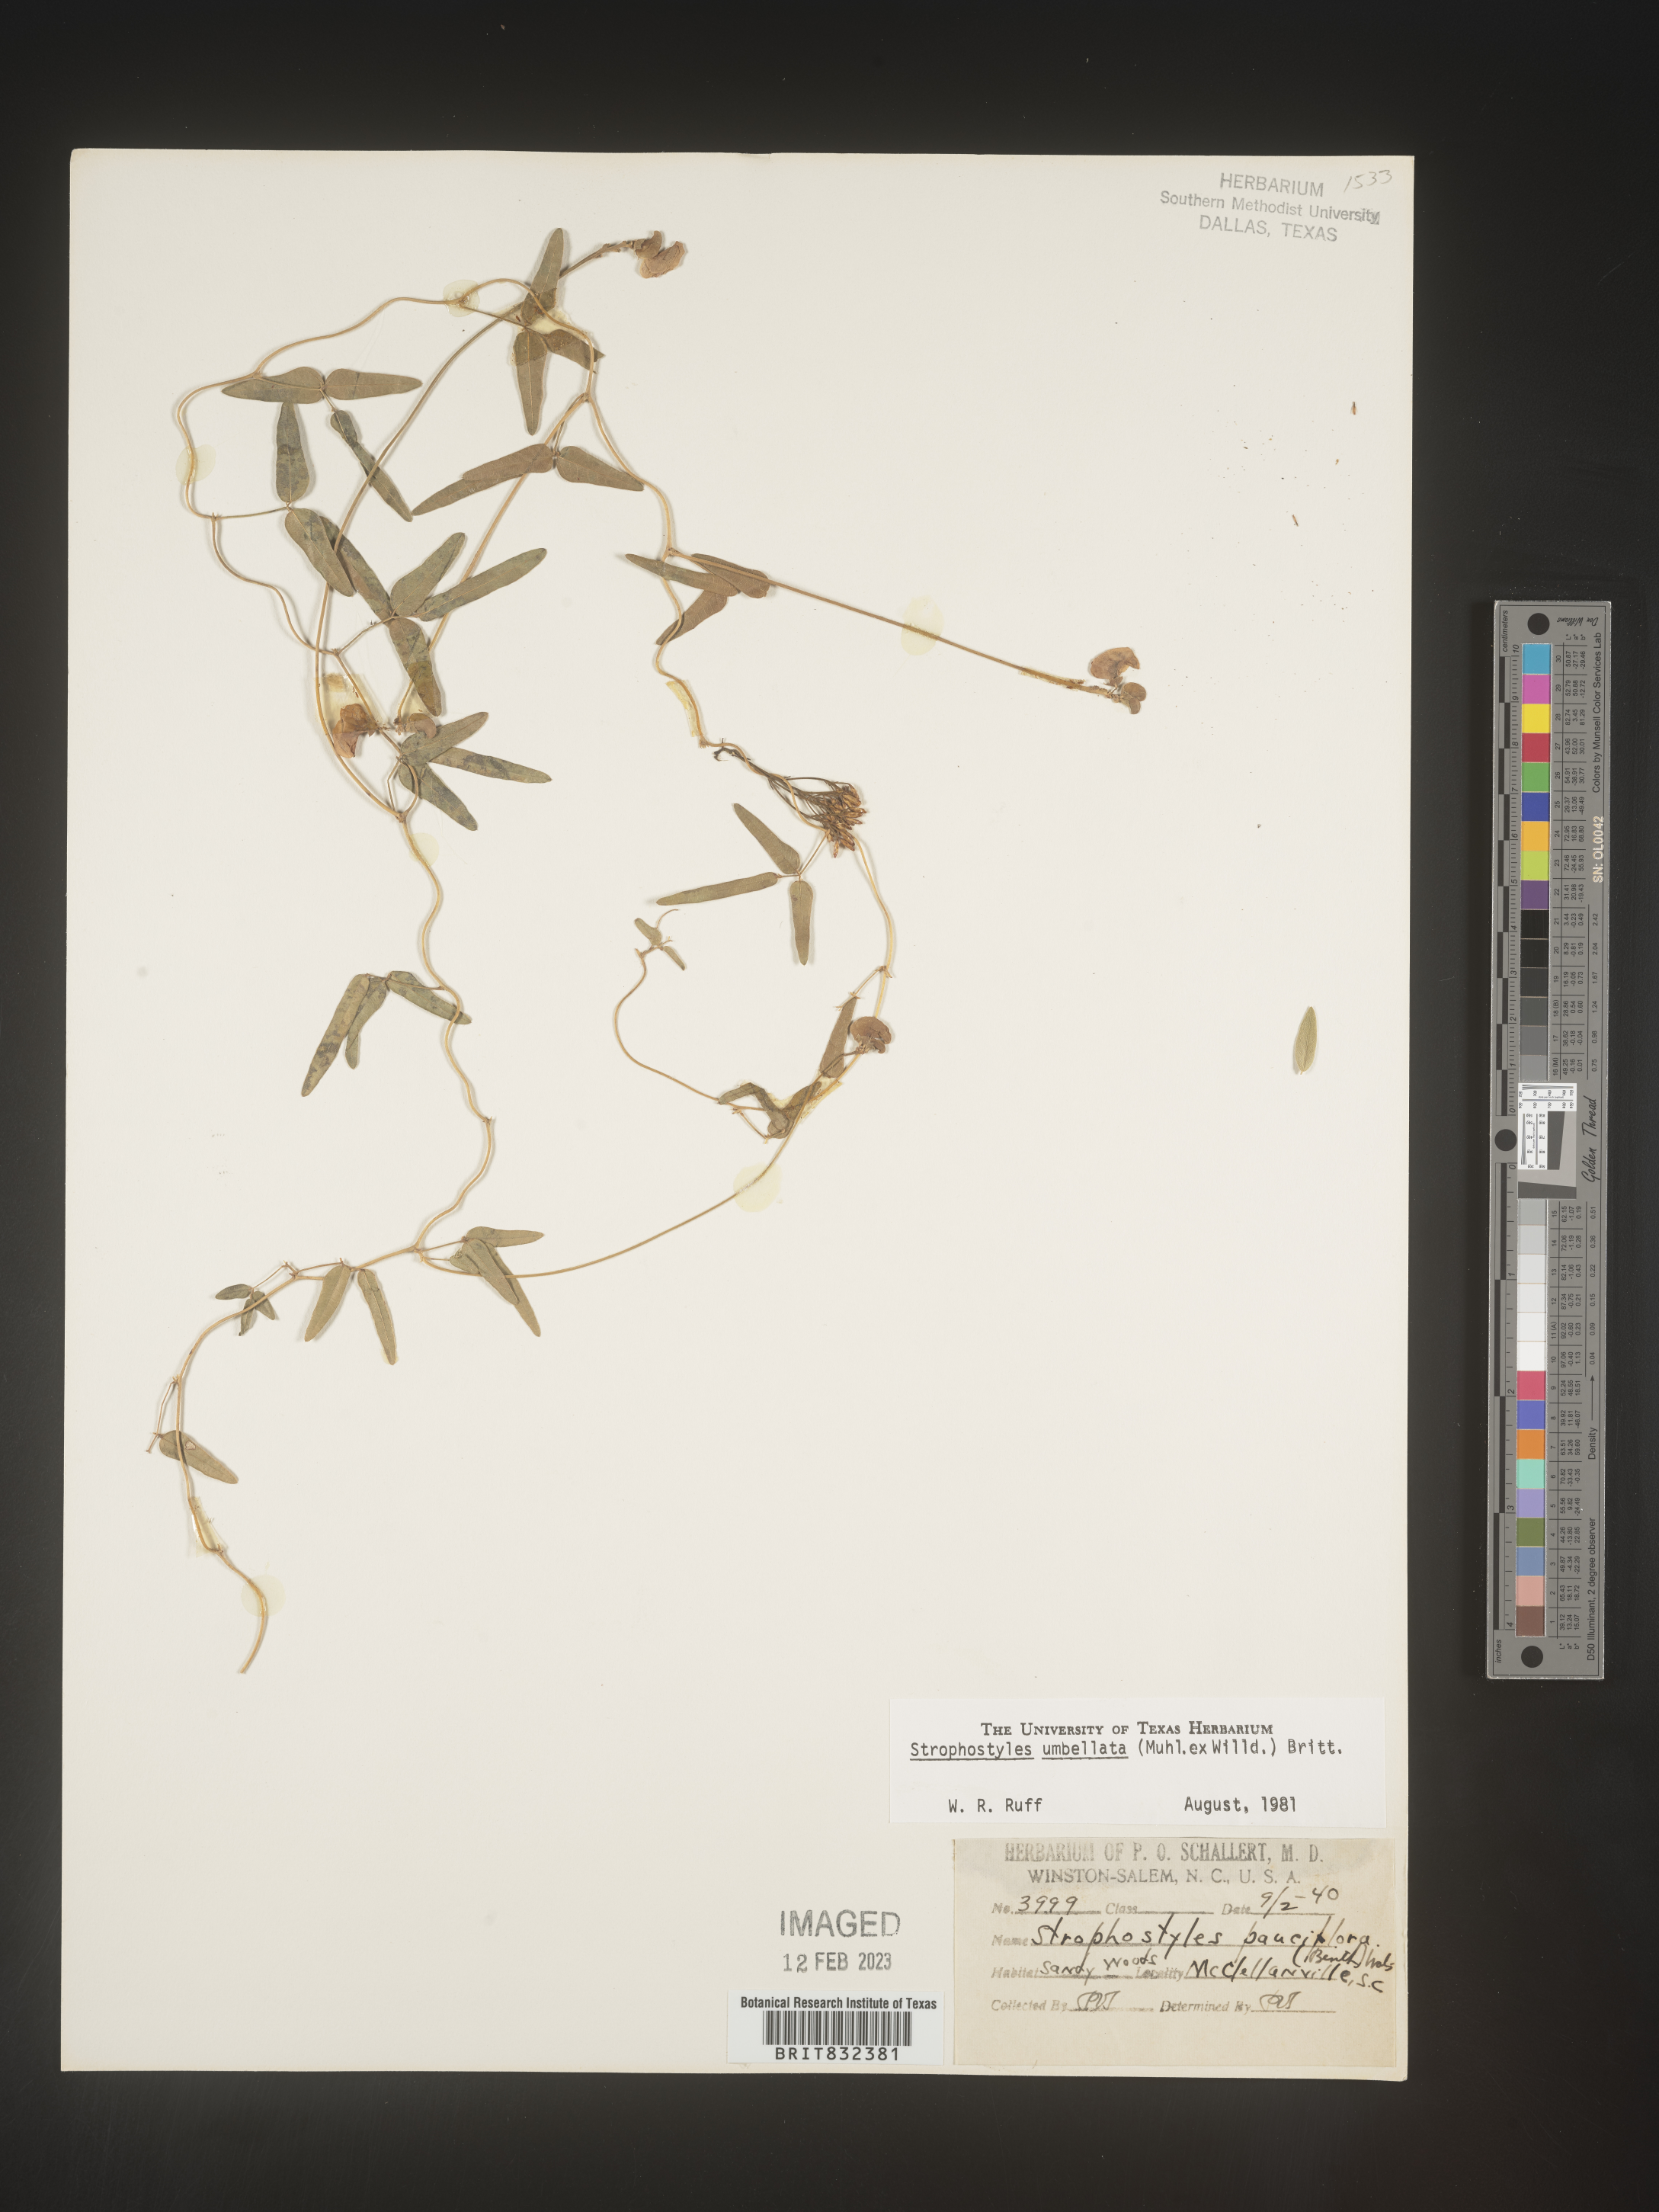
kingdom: Plantae
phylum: Tracheophyta
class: Magnoliopsida
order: Fabales
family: Fabaceae
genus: Strophostyles
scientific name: Strophostyles umbellata
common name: Perennial wild bean
